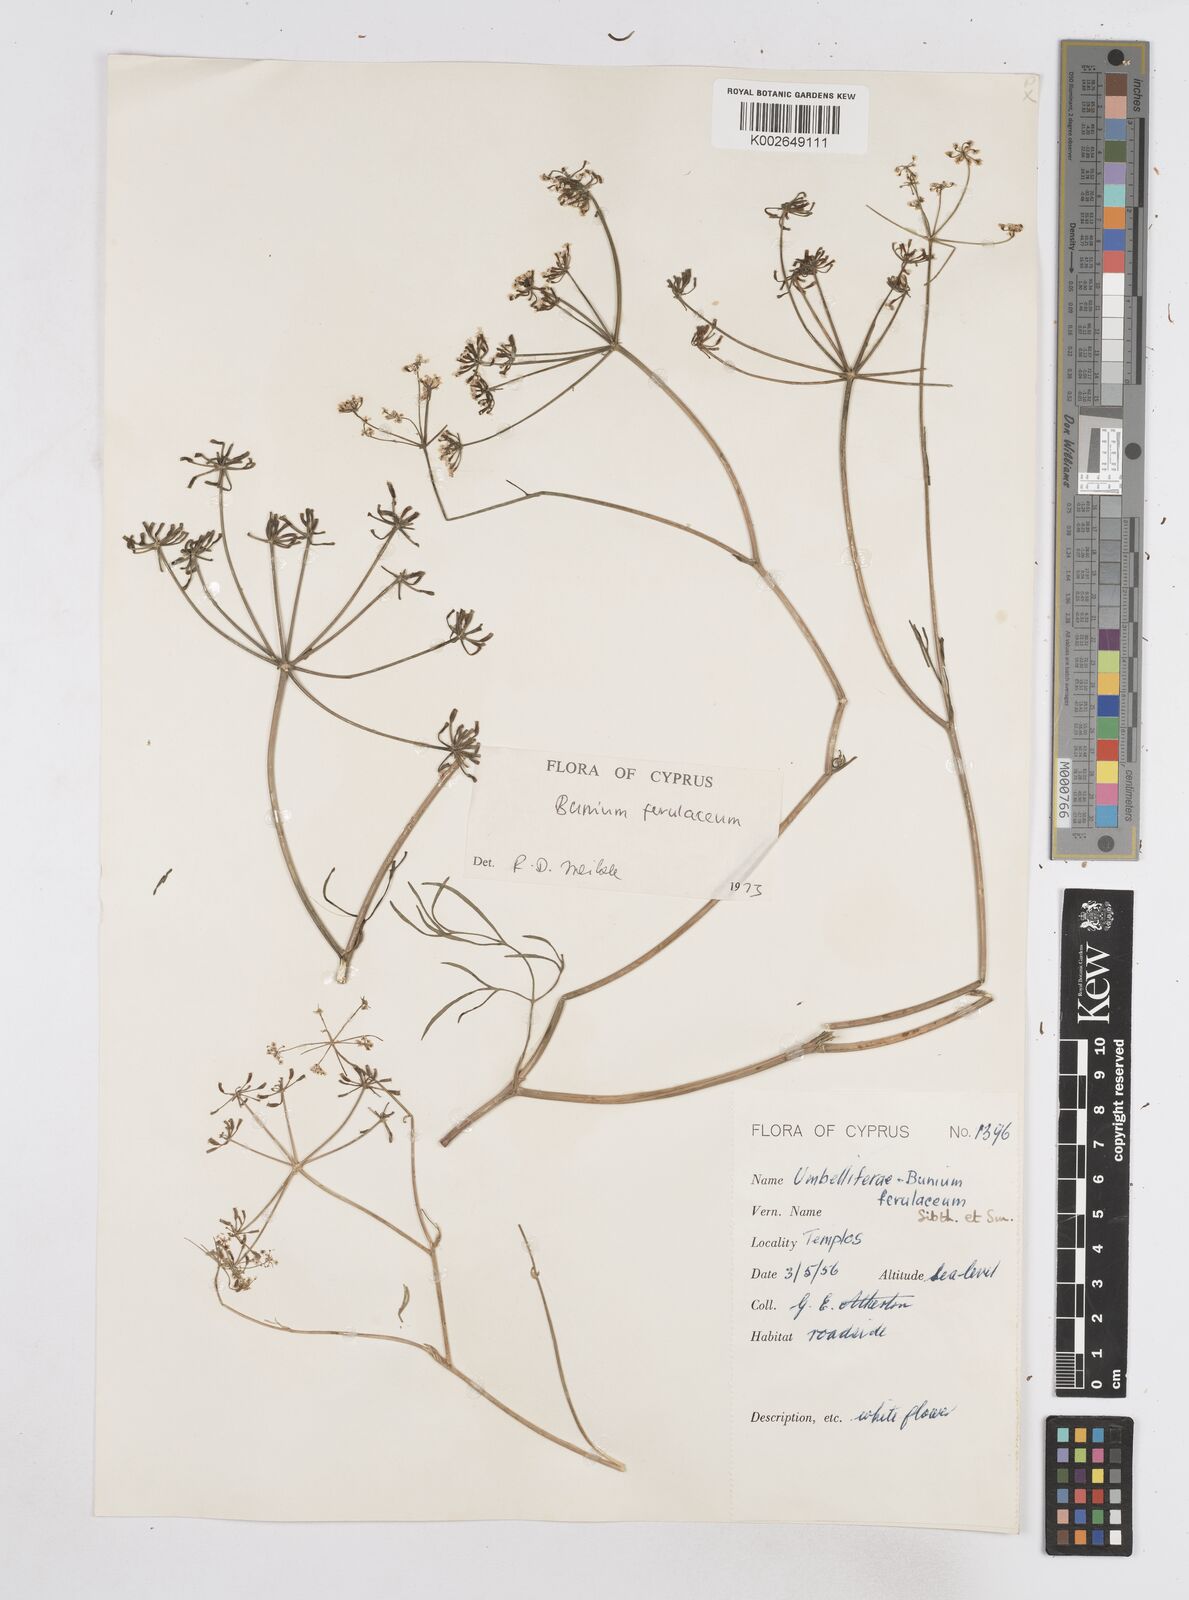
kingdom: Plantae
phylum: Tracheophyta
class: Magnoliopsida
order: Apiales
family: Apiaceae
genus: Bunium
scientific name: Bunium ferulaceum
